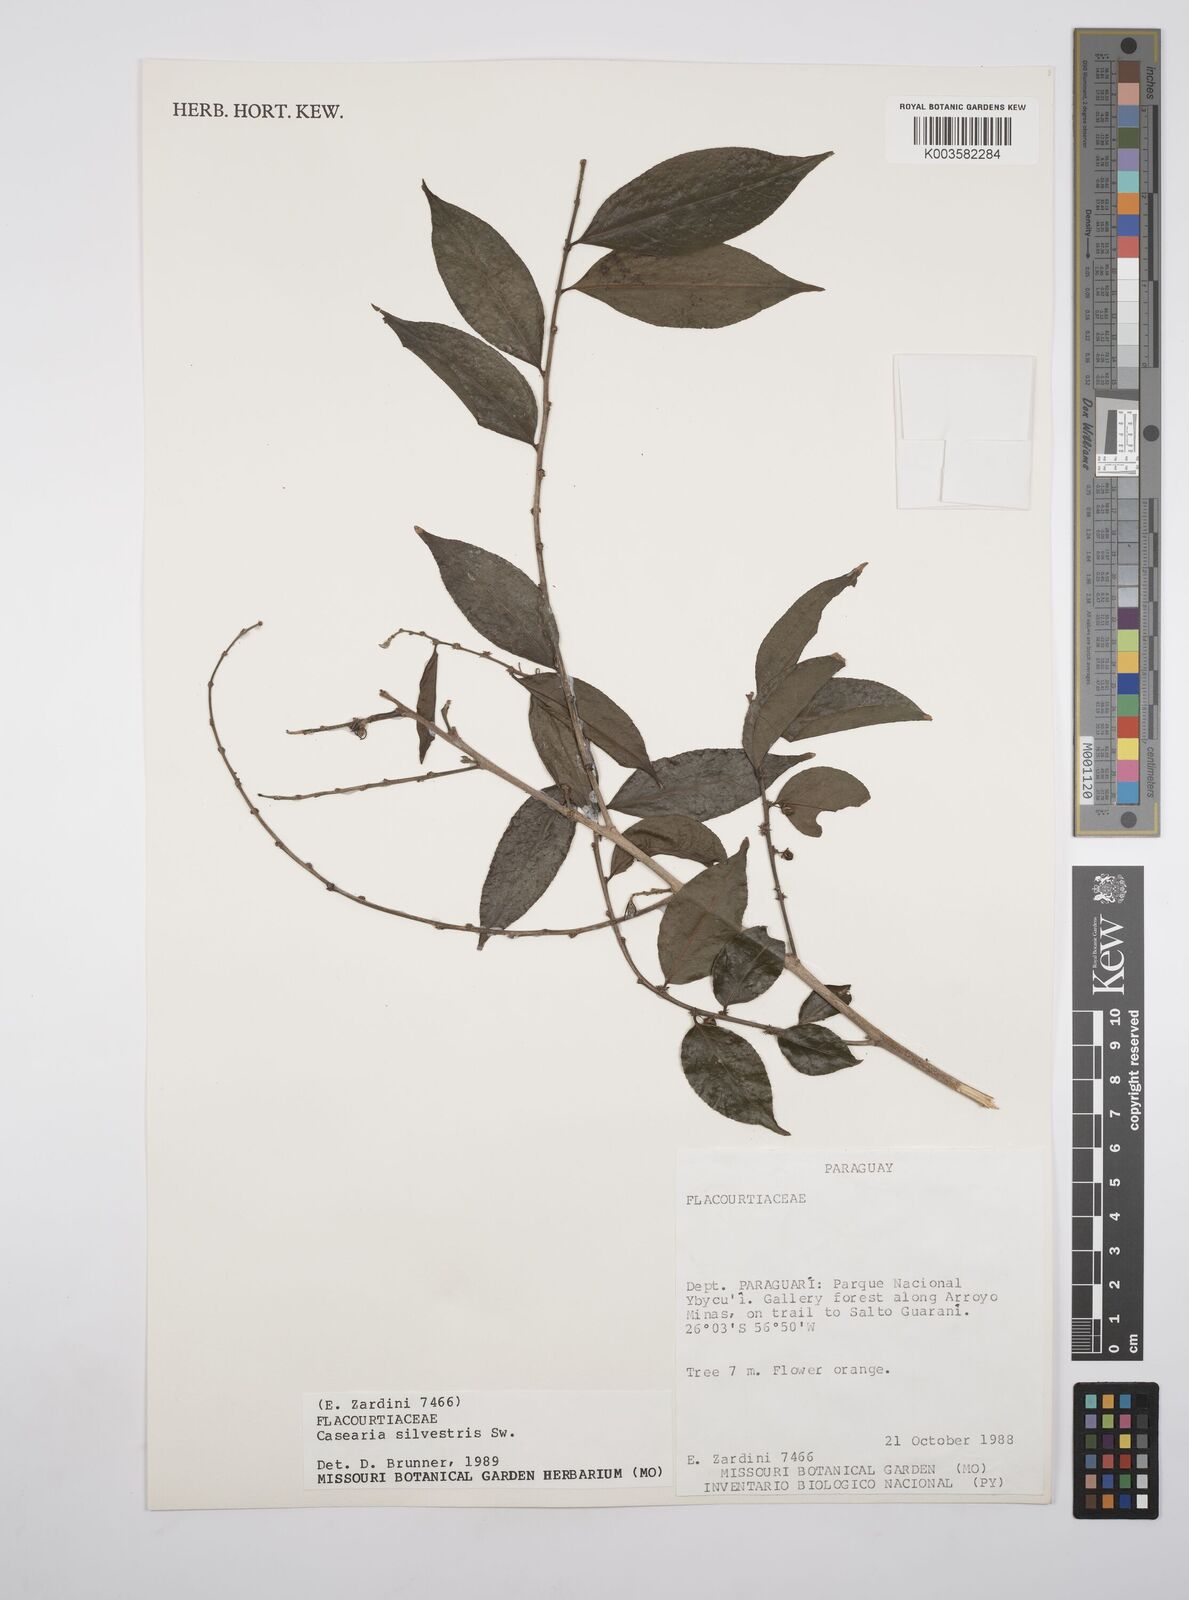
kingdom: Plantae
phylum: Tracheophyta
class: Magnoliopsida
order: Malpighiales
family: Salicaceae
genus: Casearia
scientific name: Casearia sylvestris
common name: Wild sage
